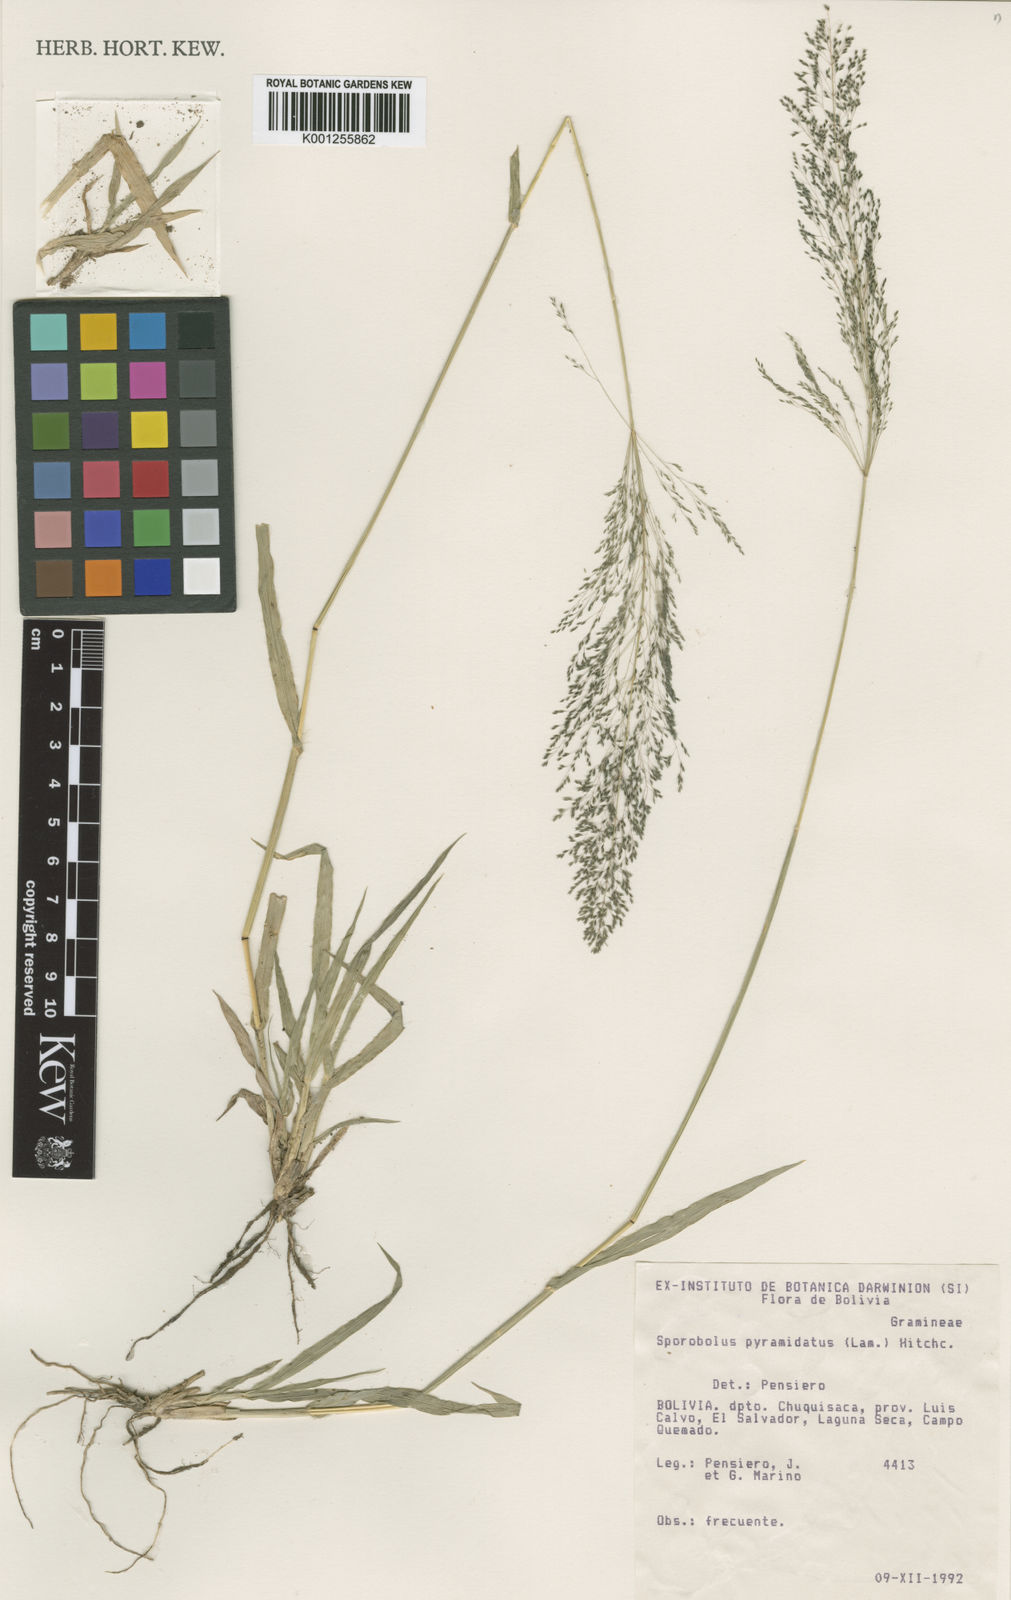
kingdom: Plantae
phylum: Tracheophyta
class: Liliopsida
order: Poales
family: Poaceae
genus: Sporobolus
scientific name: Sporobolus pyramidatus
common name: Whorled dropseed
